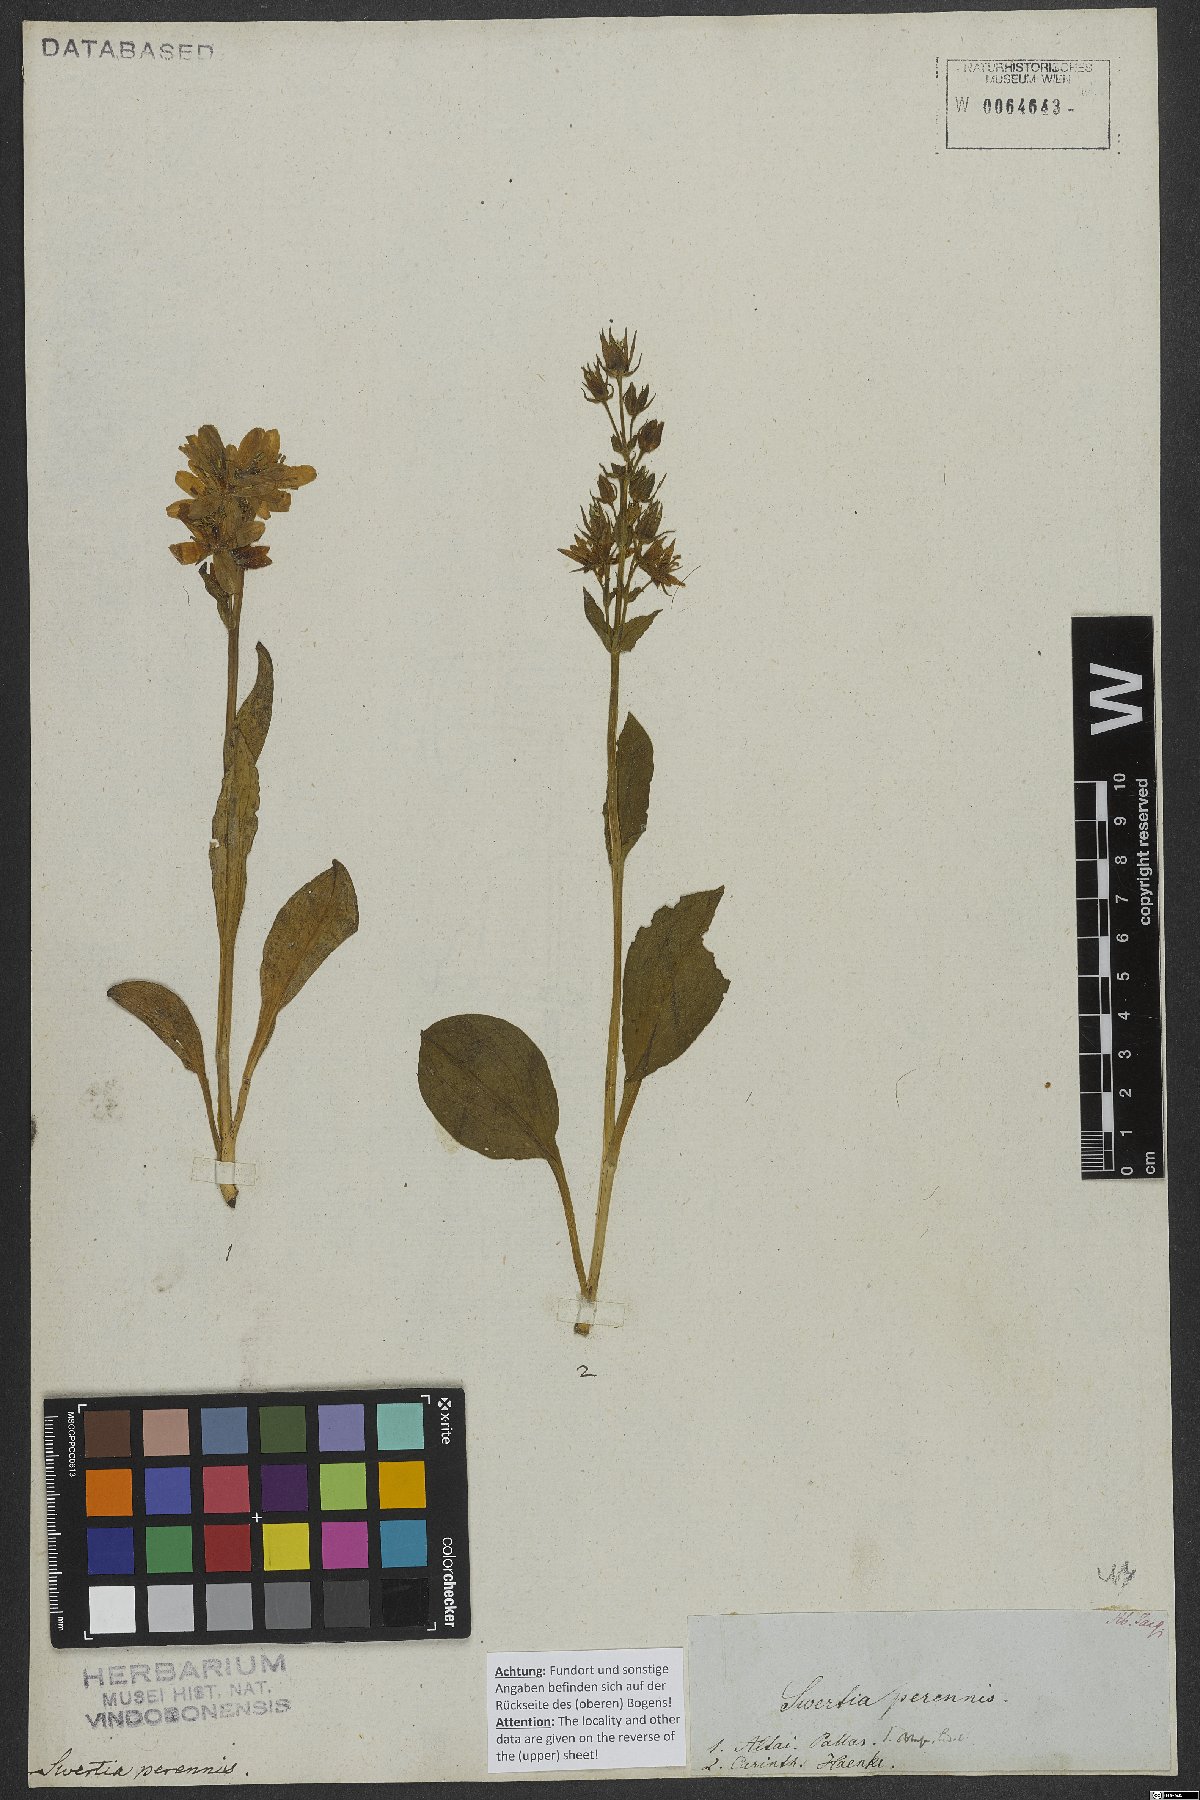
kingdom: Plantae
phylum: Tracheophyta
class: Magnoliopsida
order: Gentianales
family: Gentianaceae
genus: Swertia
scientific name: Swertia perennis
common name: Alpine bog swertia
